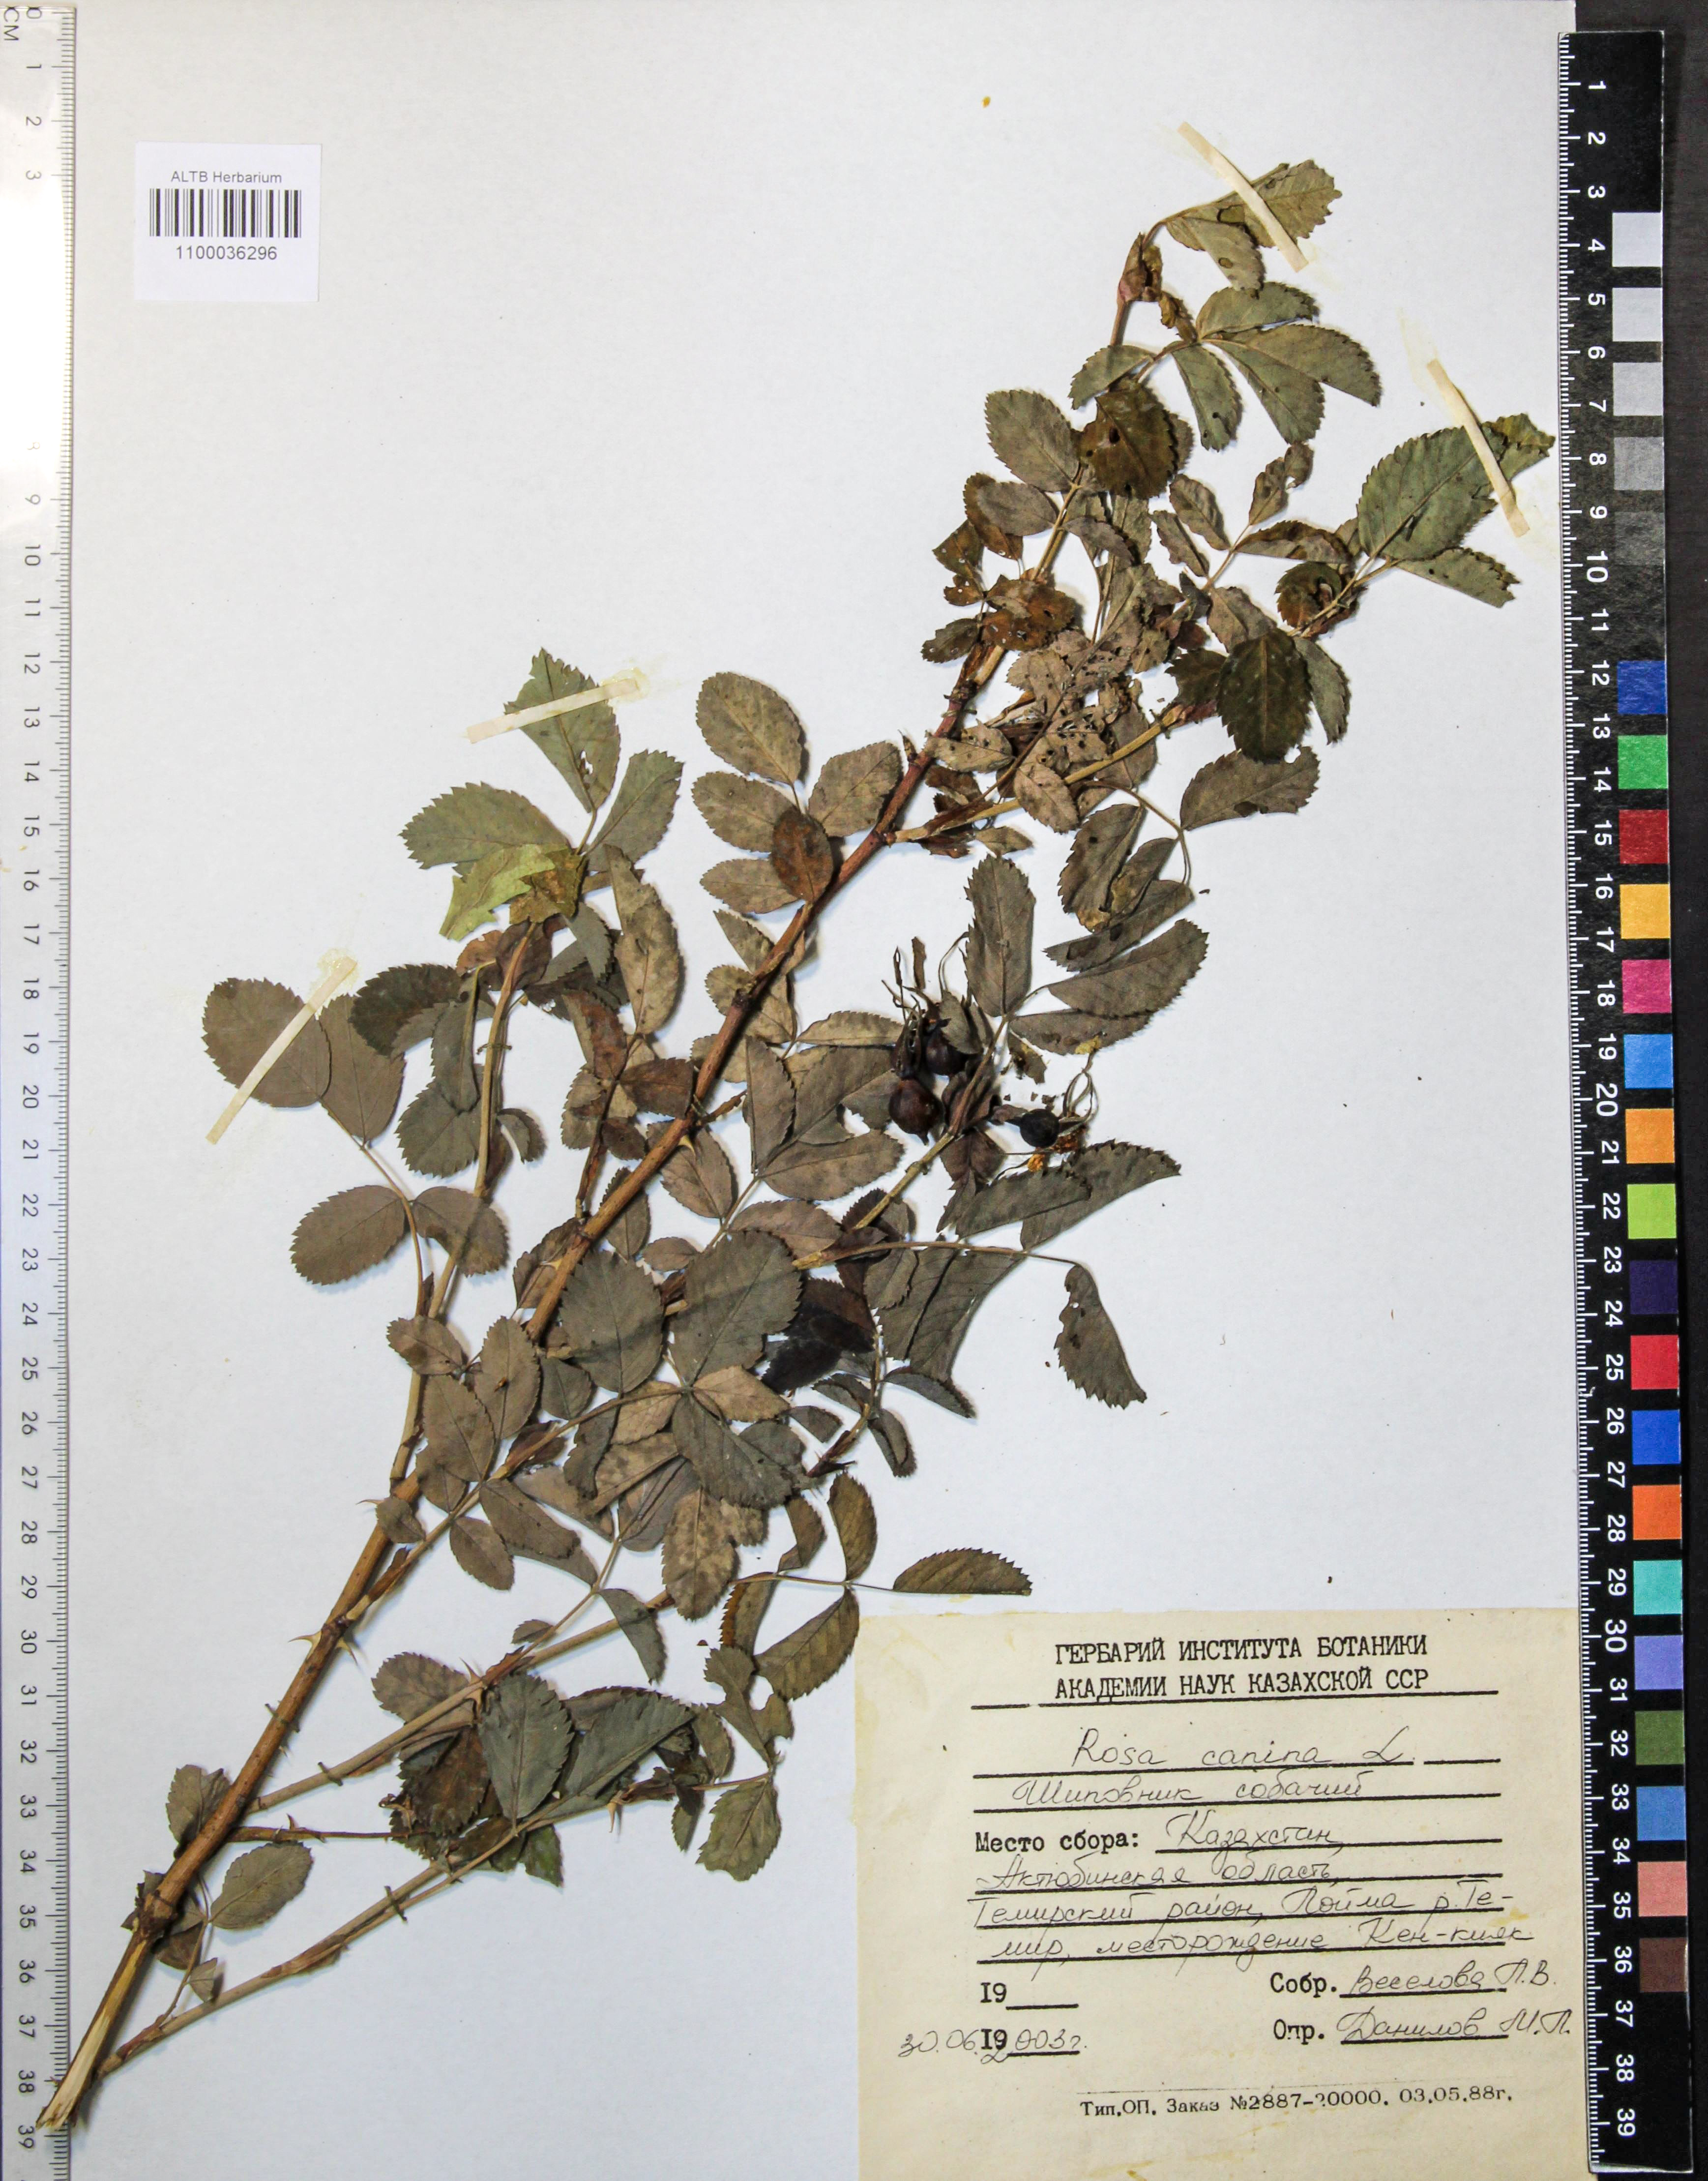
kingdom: Plantae
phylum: Tracheophyta
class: Magnoliopsida
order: Rosales
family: Rosaceae
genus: Rosa
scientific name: Rosa canina
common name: Dog rose
